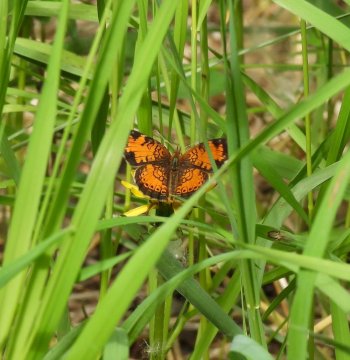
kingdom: Animalia
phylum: Arthropoda
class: Insecta
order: Lepidoptera
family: Nymphalidae
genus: Phyciodes
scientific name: Phyciodes tharos
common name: Northern Crescent
